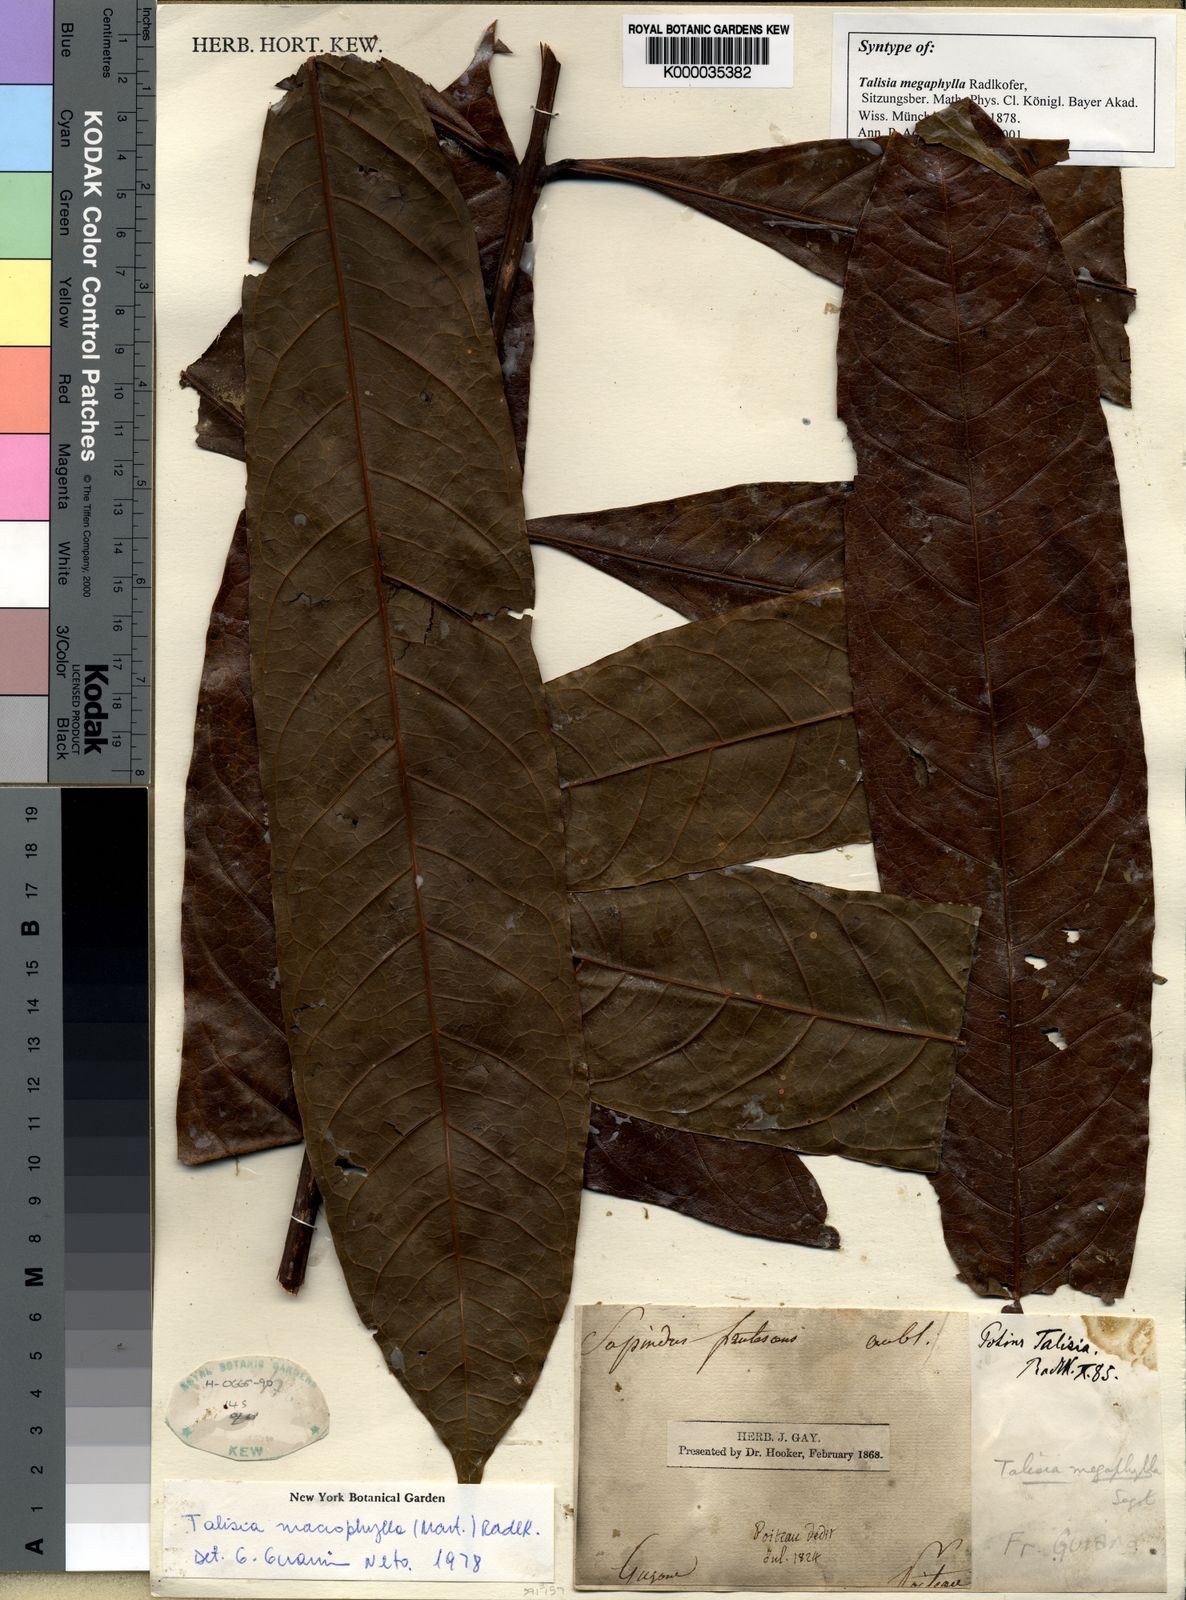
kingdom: Plantae
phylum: Tracheophyta
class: Magnoliopsida
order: Sapindales
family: Sapindaceae
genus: Talisia
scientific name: Talisia
